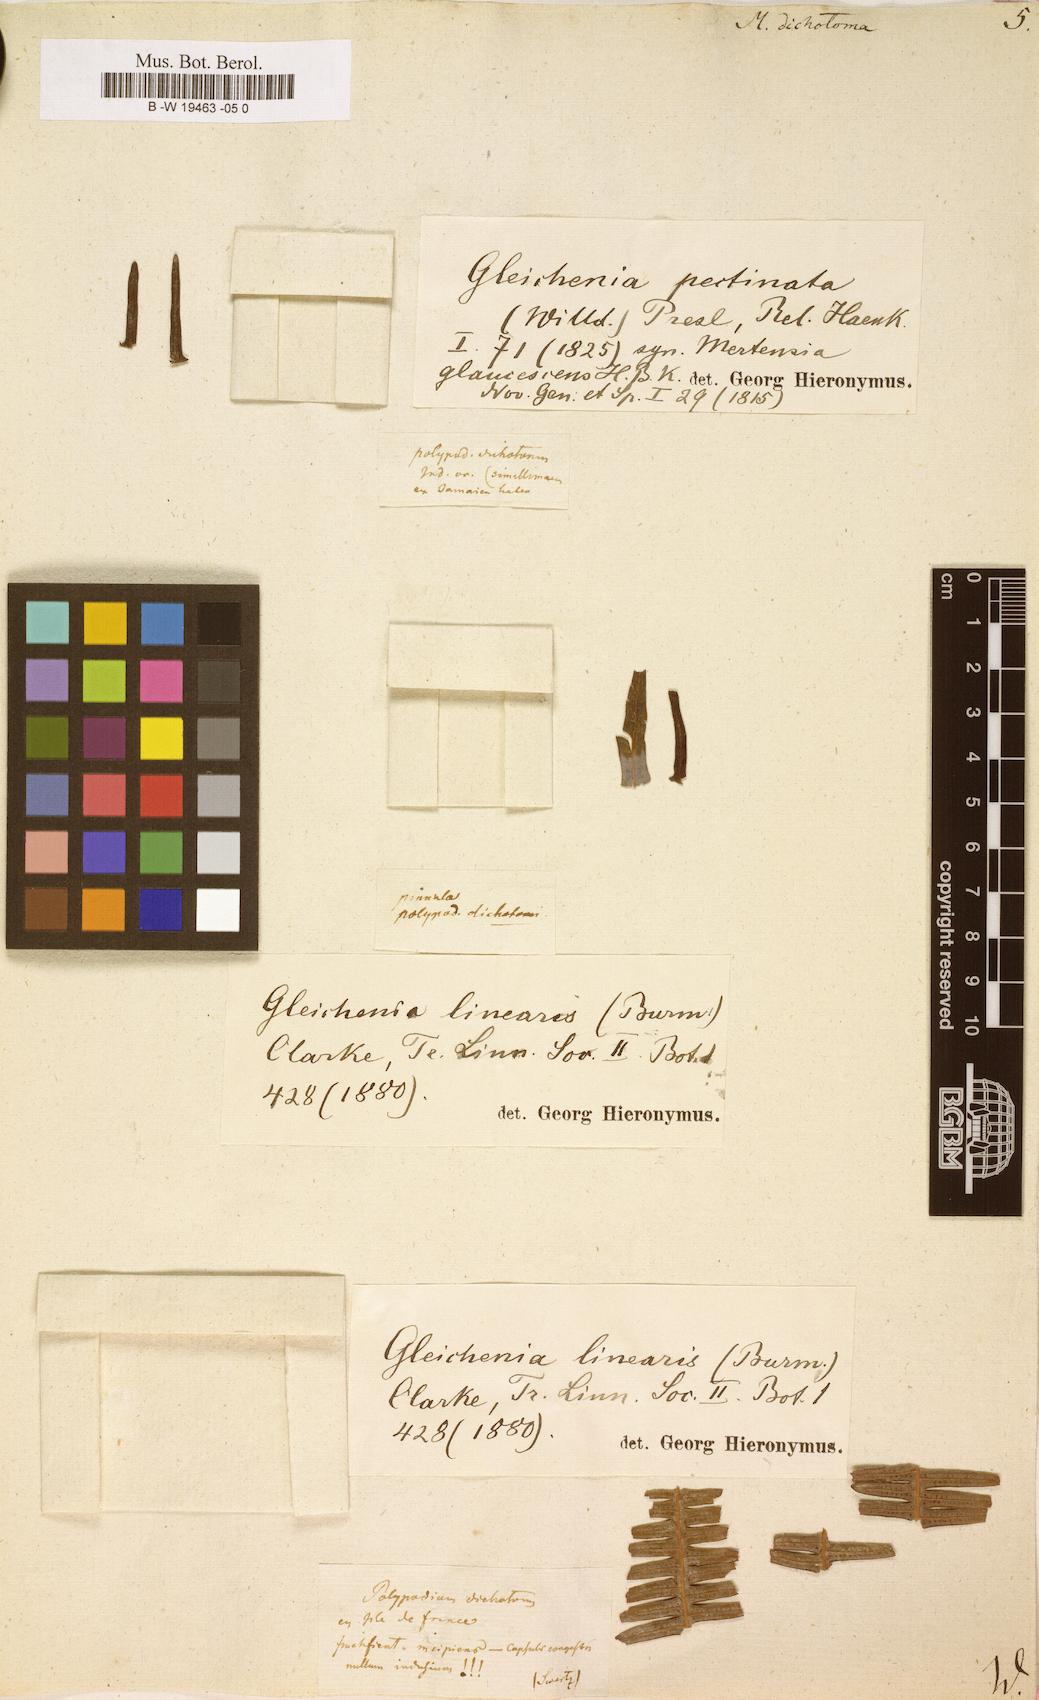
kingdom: Plantae
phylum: Tracheophyta
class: Polypodiopsida
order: Gleicheniales
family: Gleicheniaceae
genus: Dicranopteris
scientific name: Dicranopteris pedata
